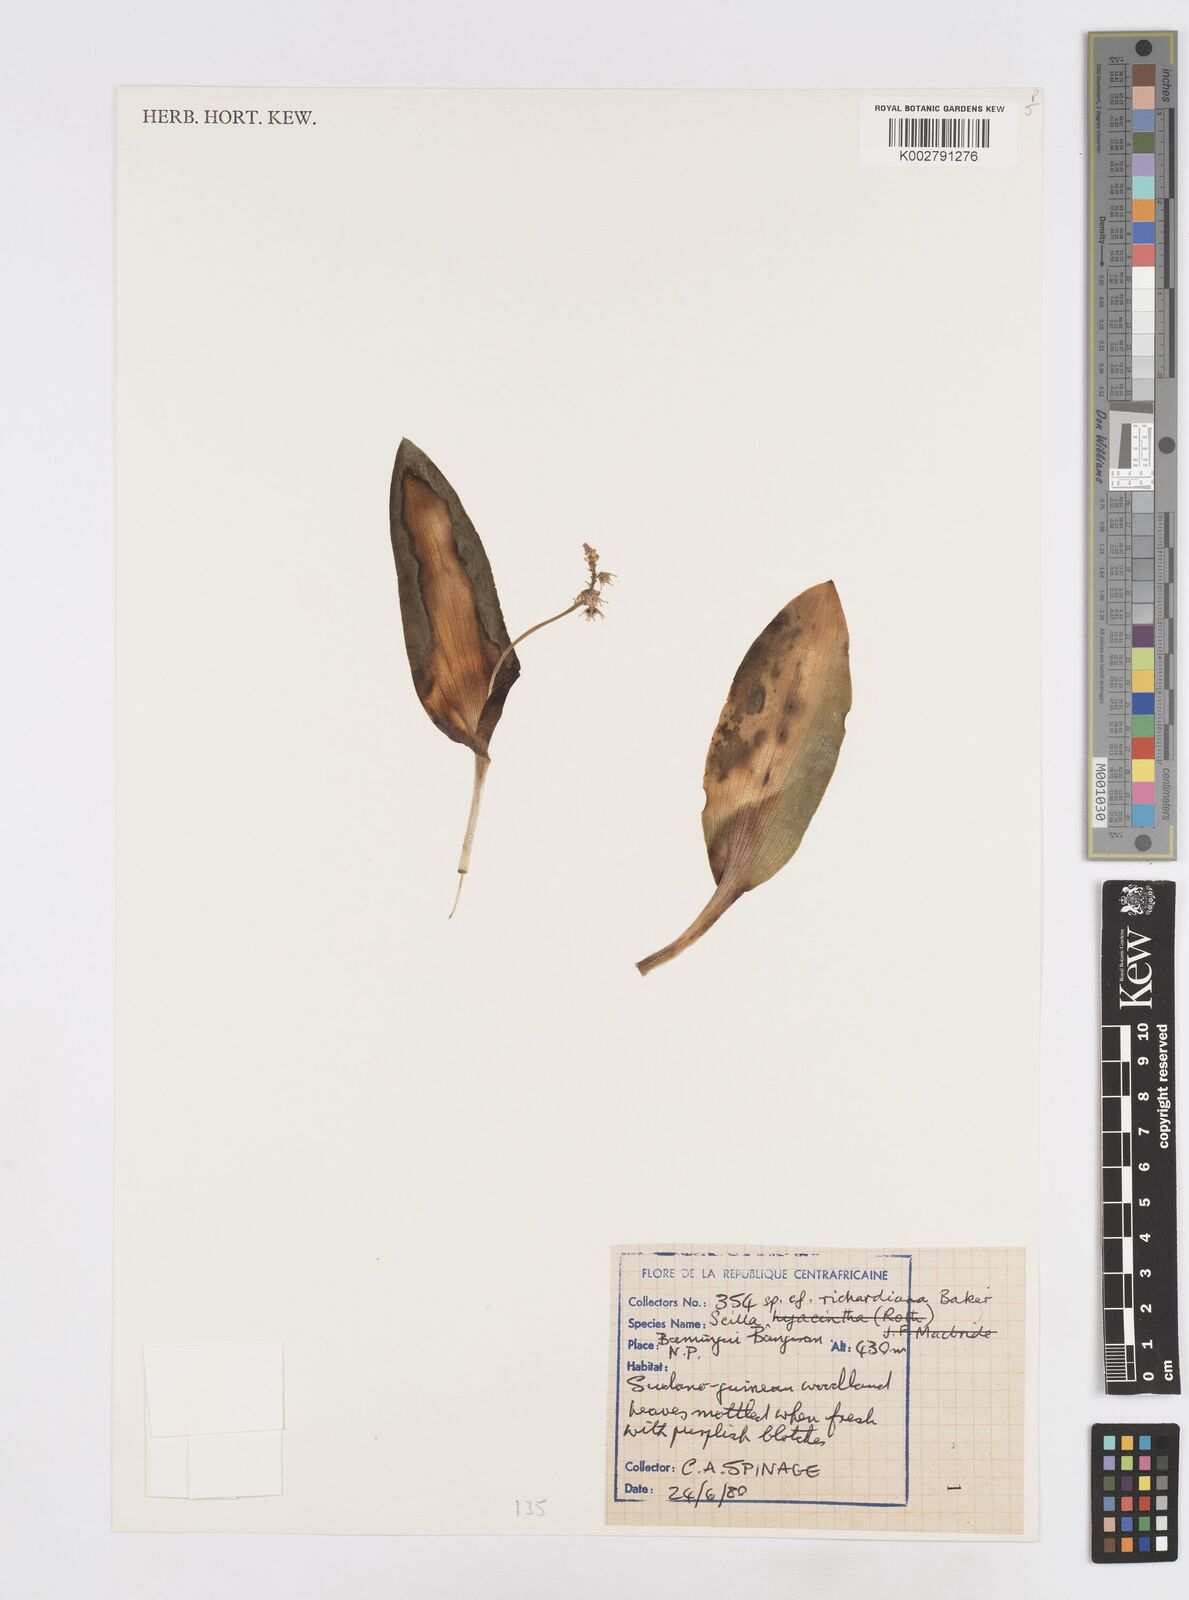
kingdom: Plantae
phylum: Tracheophyta
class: Liliopsida
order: Asparagales
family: Asparagaceae
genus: Ledebouria
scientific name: Ledebouria revoluta
